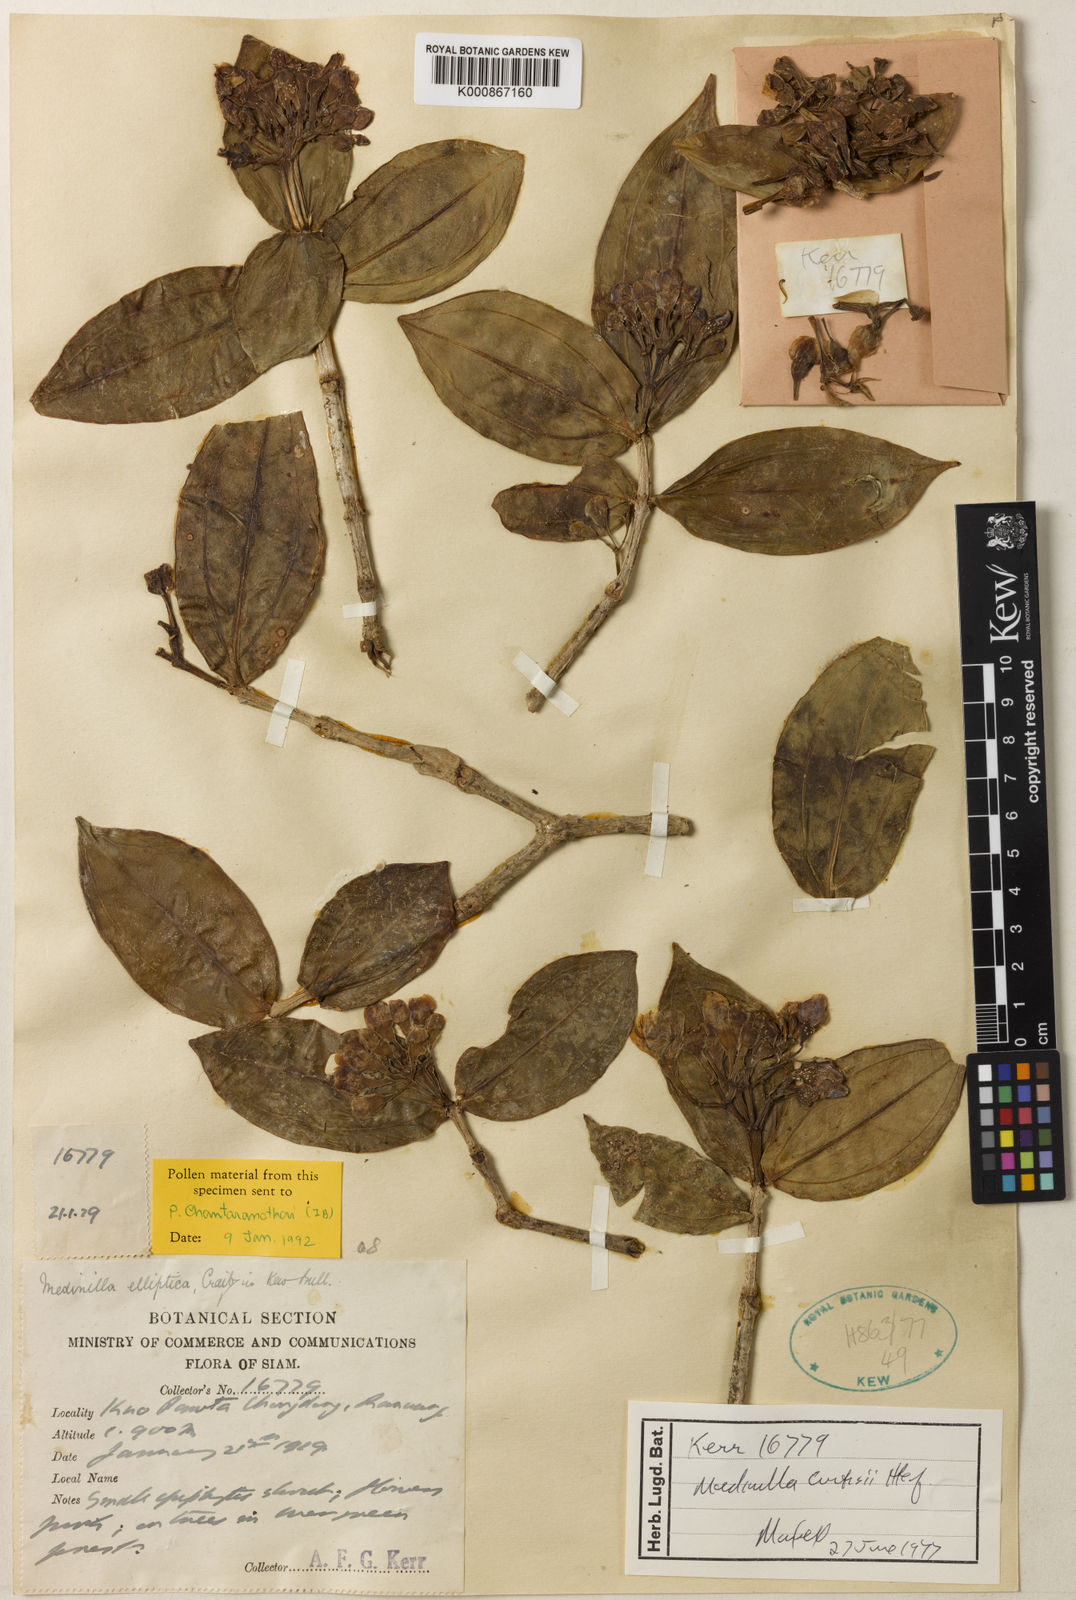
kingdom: Plantae
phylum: Tracheophyta
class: Magnoliopsida
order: Myrtales
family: Melastomataceae
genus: Medinilla
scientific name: Medinilla curtisii
